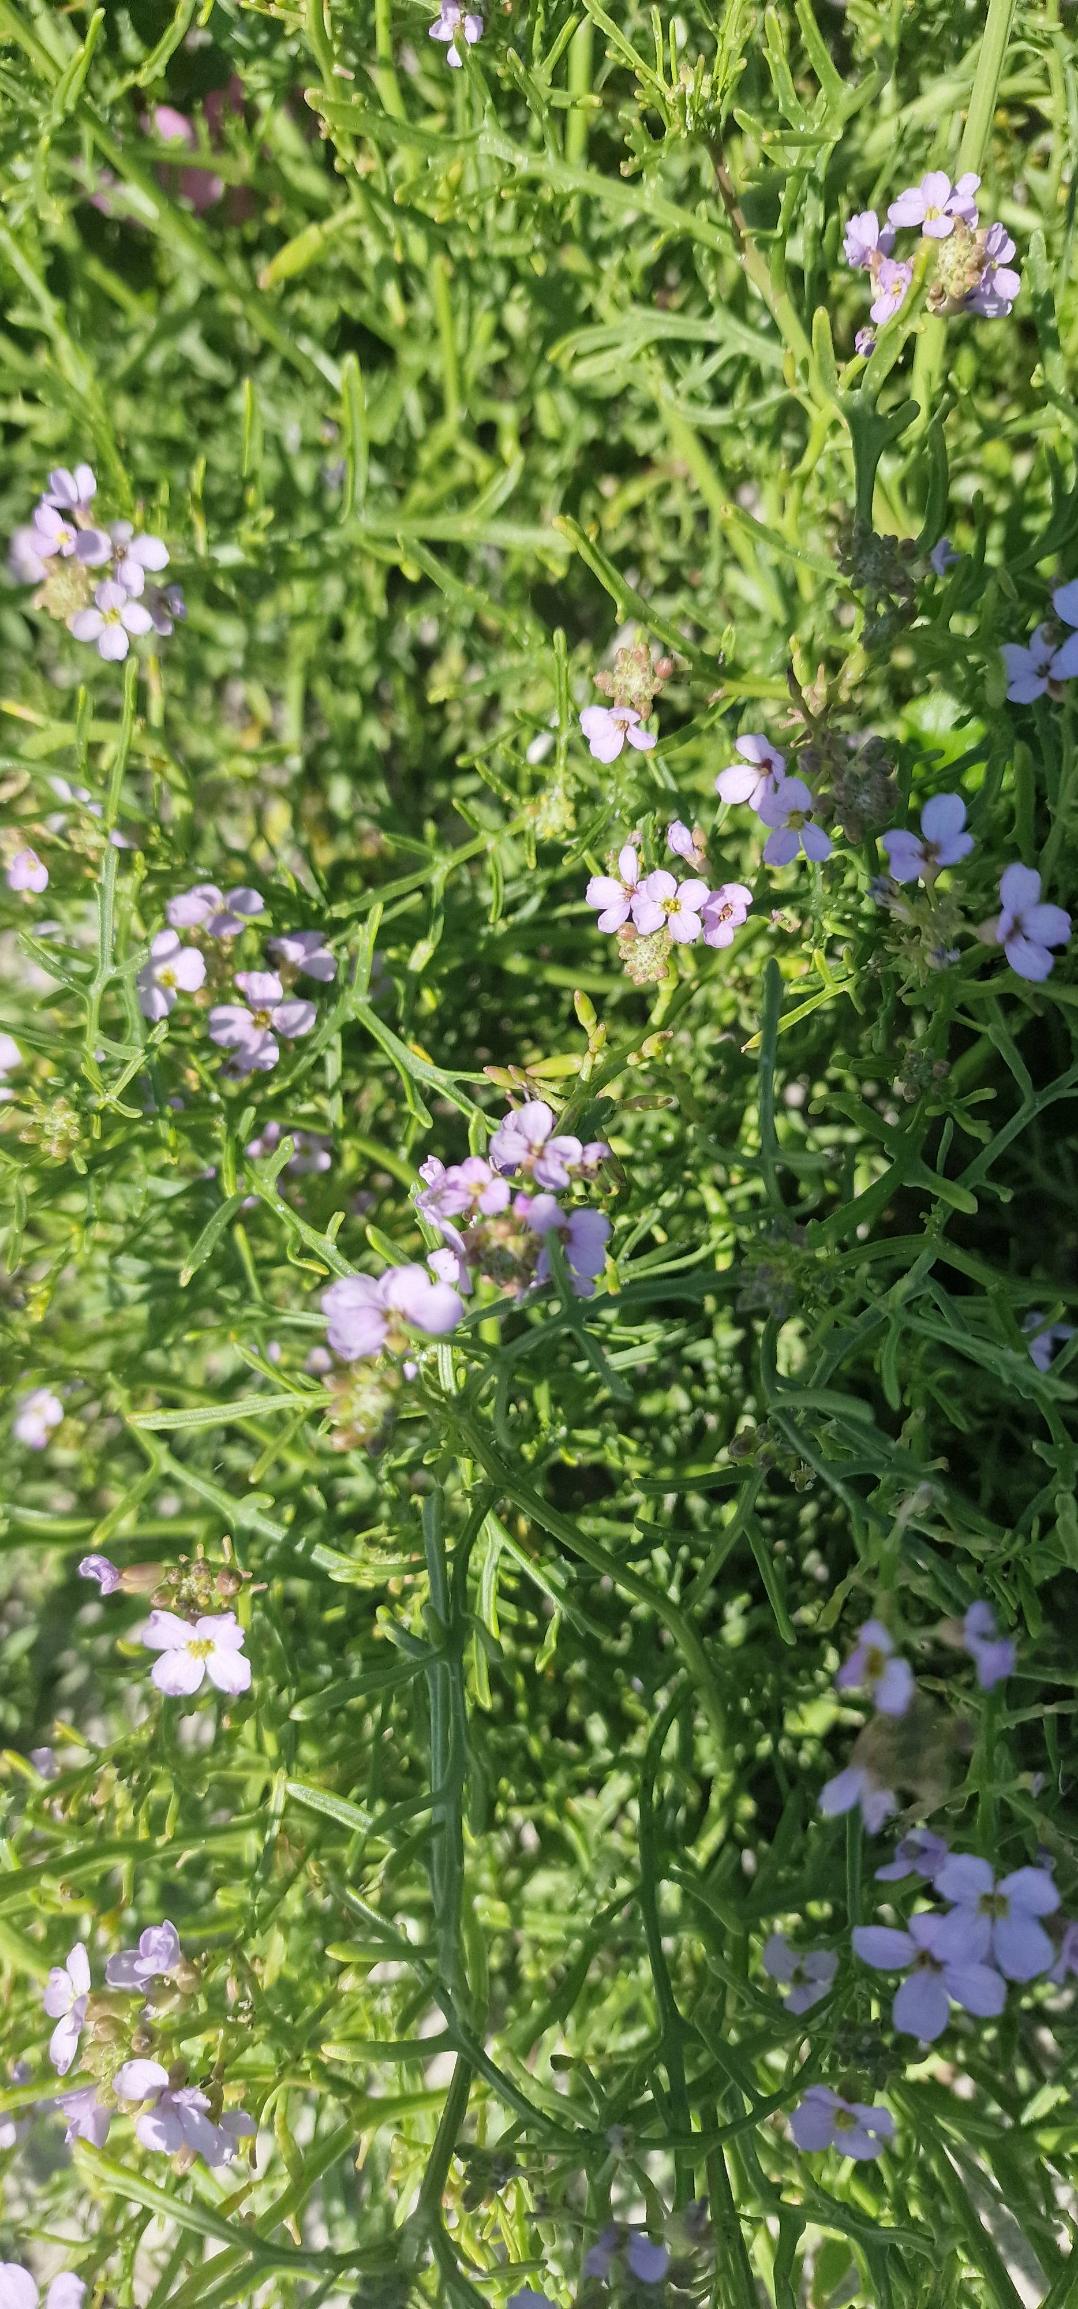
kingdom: Plantae
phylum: Tracheophyta
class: Magnoliopsida
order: Brassicales
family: Brassicaceae
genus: Cakile
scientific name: Cakile maritima
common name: Strandsennep
